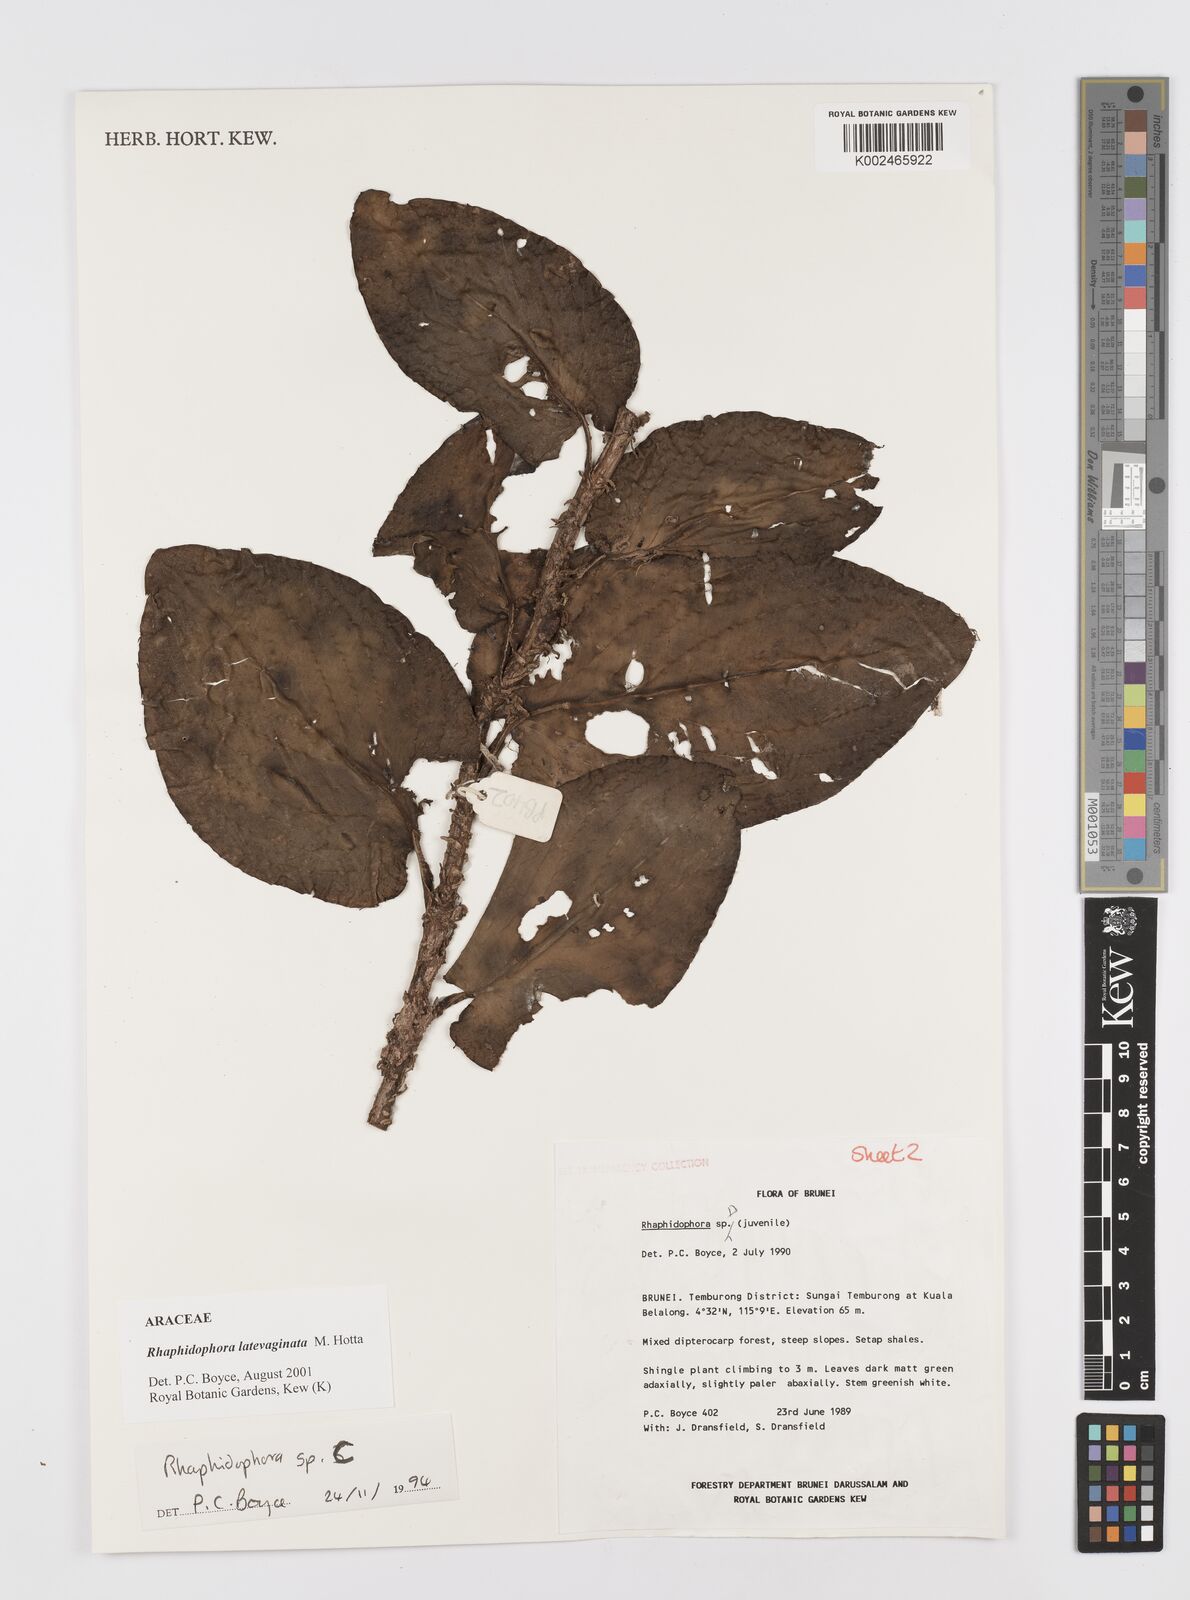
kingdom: Plantae
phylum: Tracheophyta
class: Liliopsida
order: Alismatales
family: Araceae
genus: Rhaphidophora
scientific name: Rhaphidophora latevaginata
